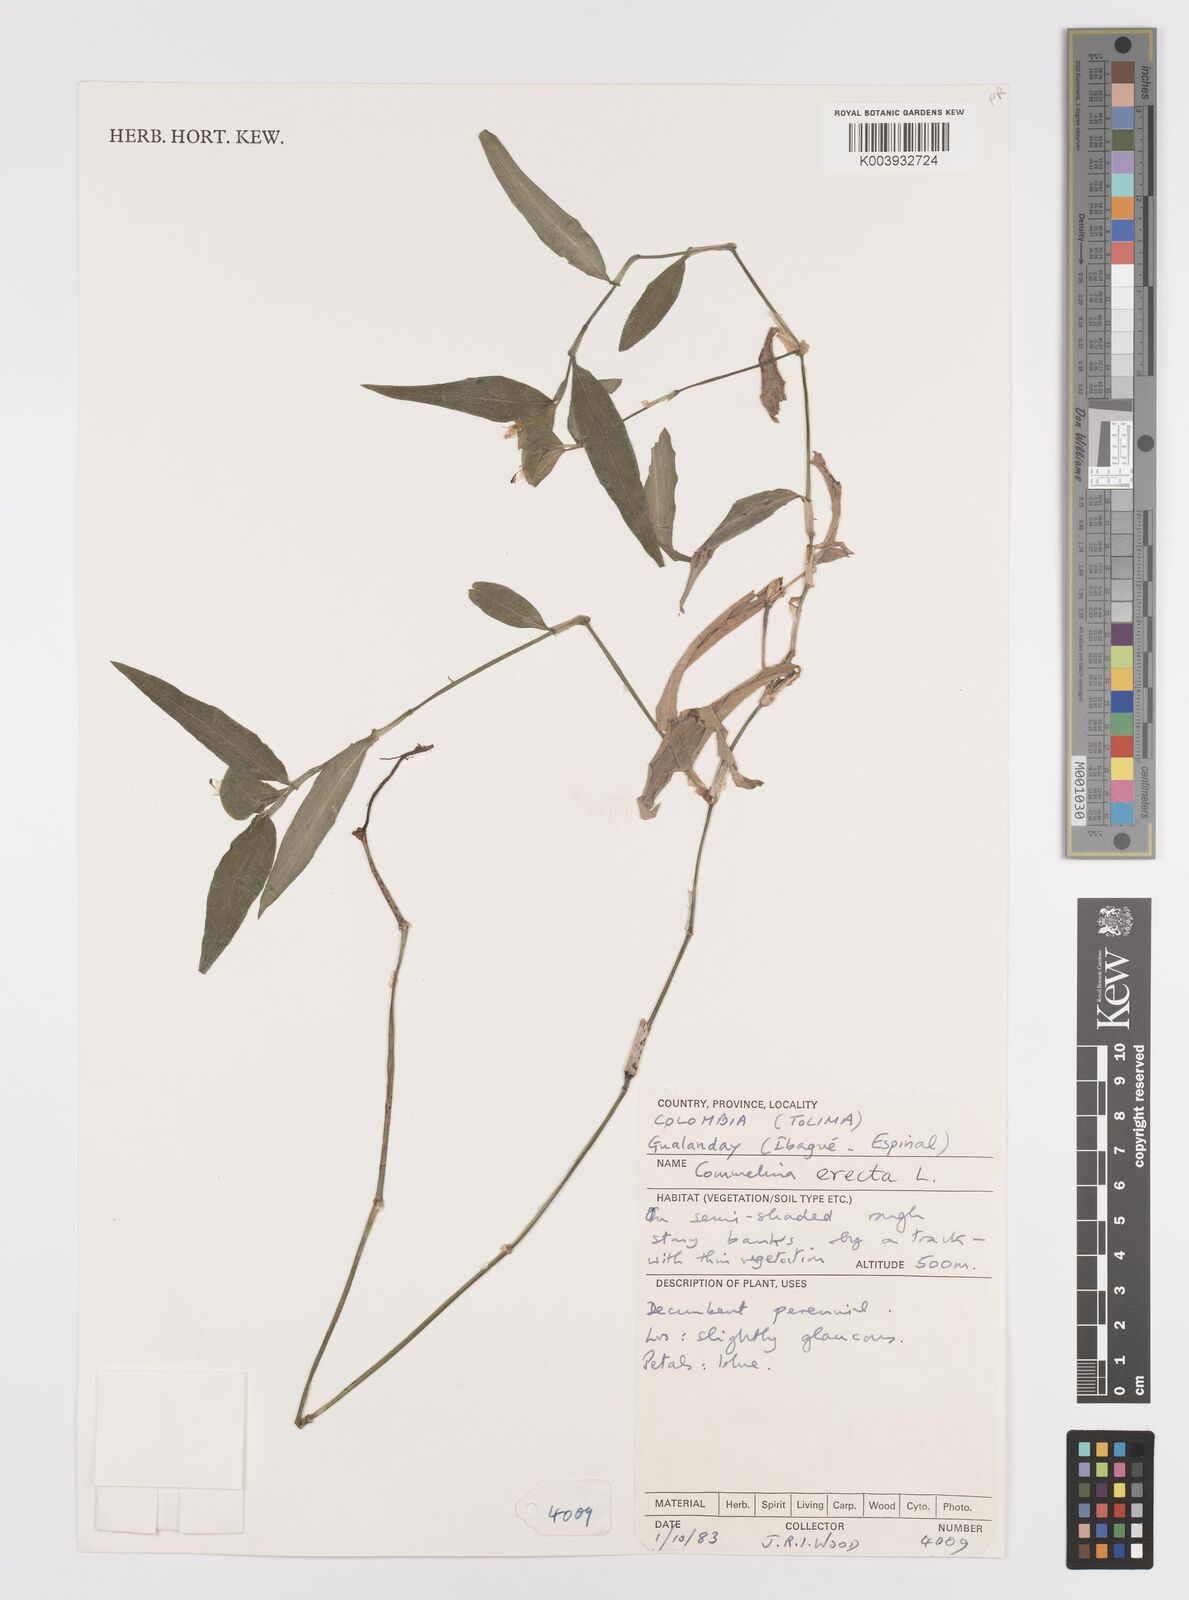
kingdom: Plantae
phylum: Tracheophyta
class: Liliopsida
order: Commelinales
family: Commelinaceae
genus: Commelina
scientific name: Commelina erecta
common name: Blousel blommetjie
